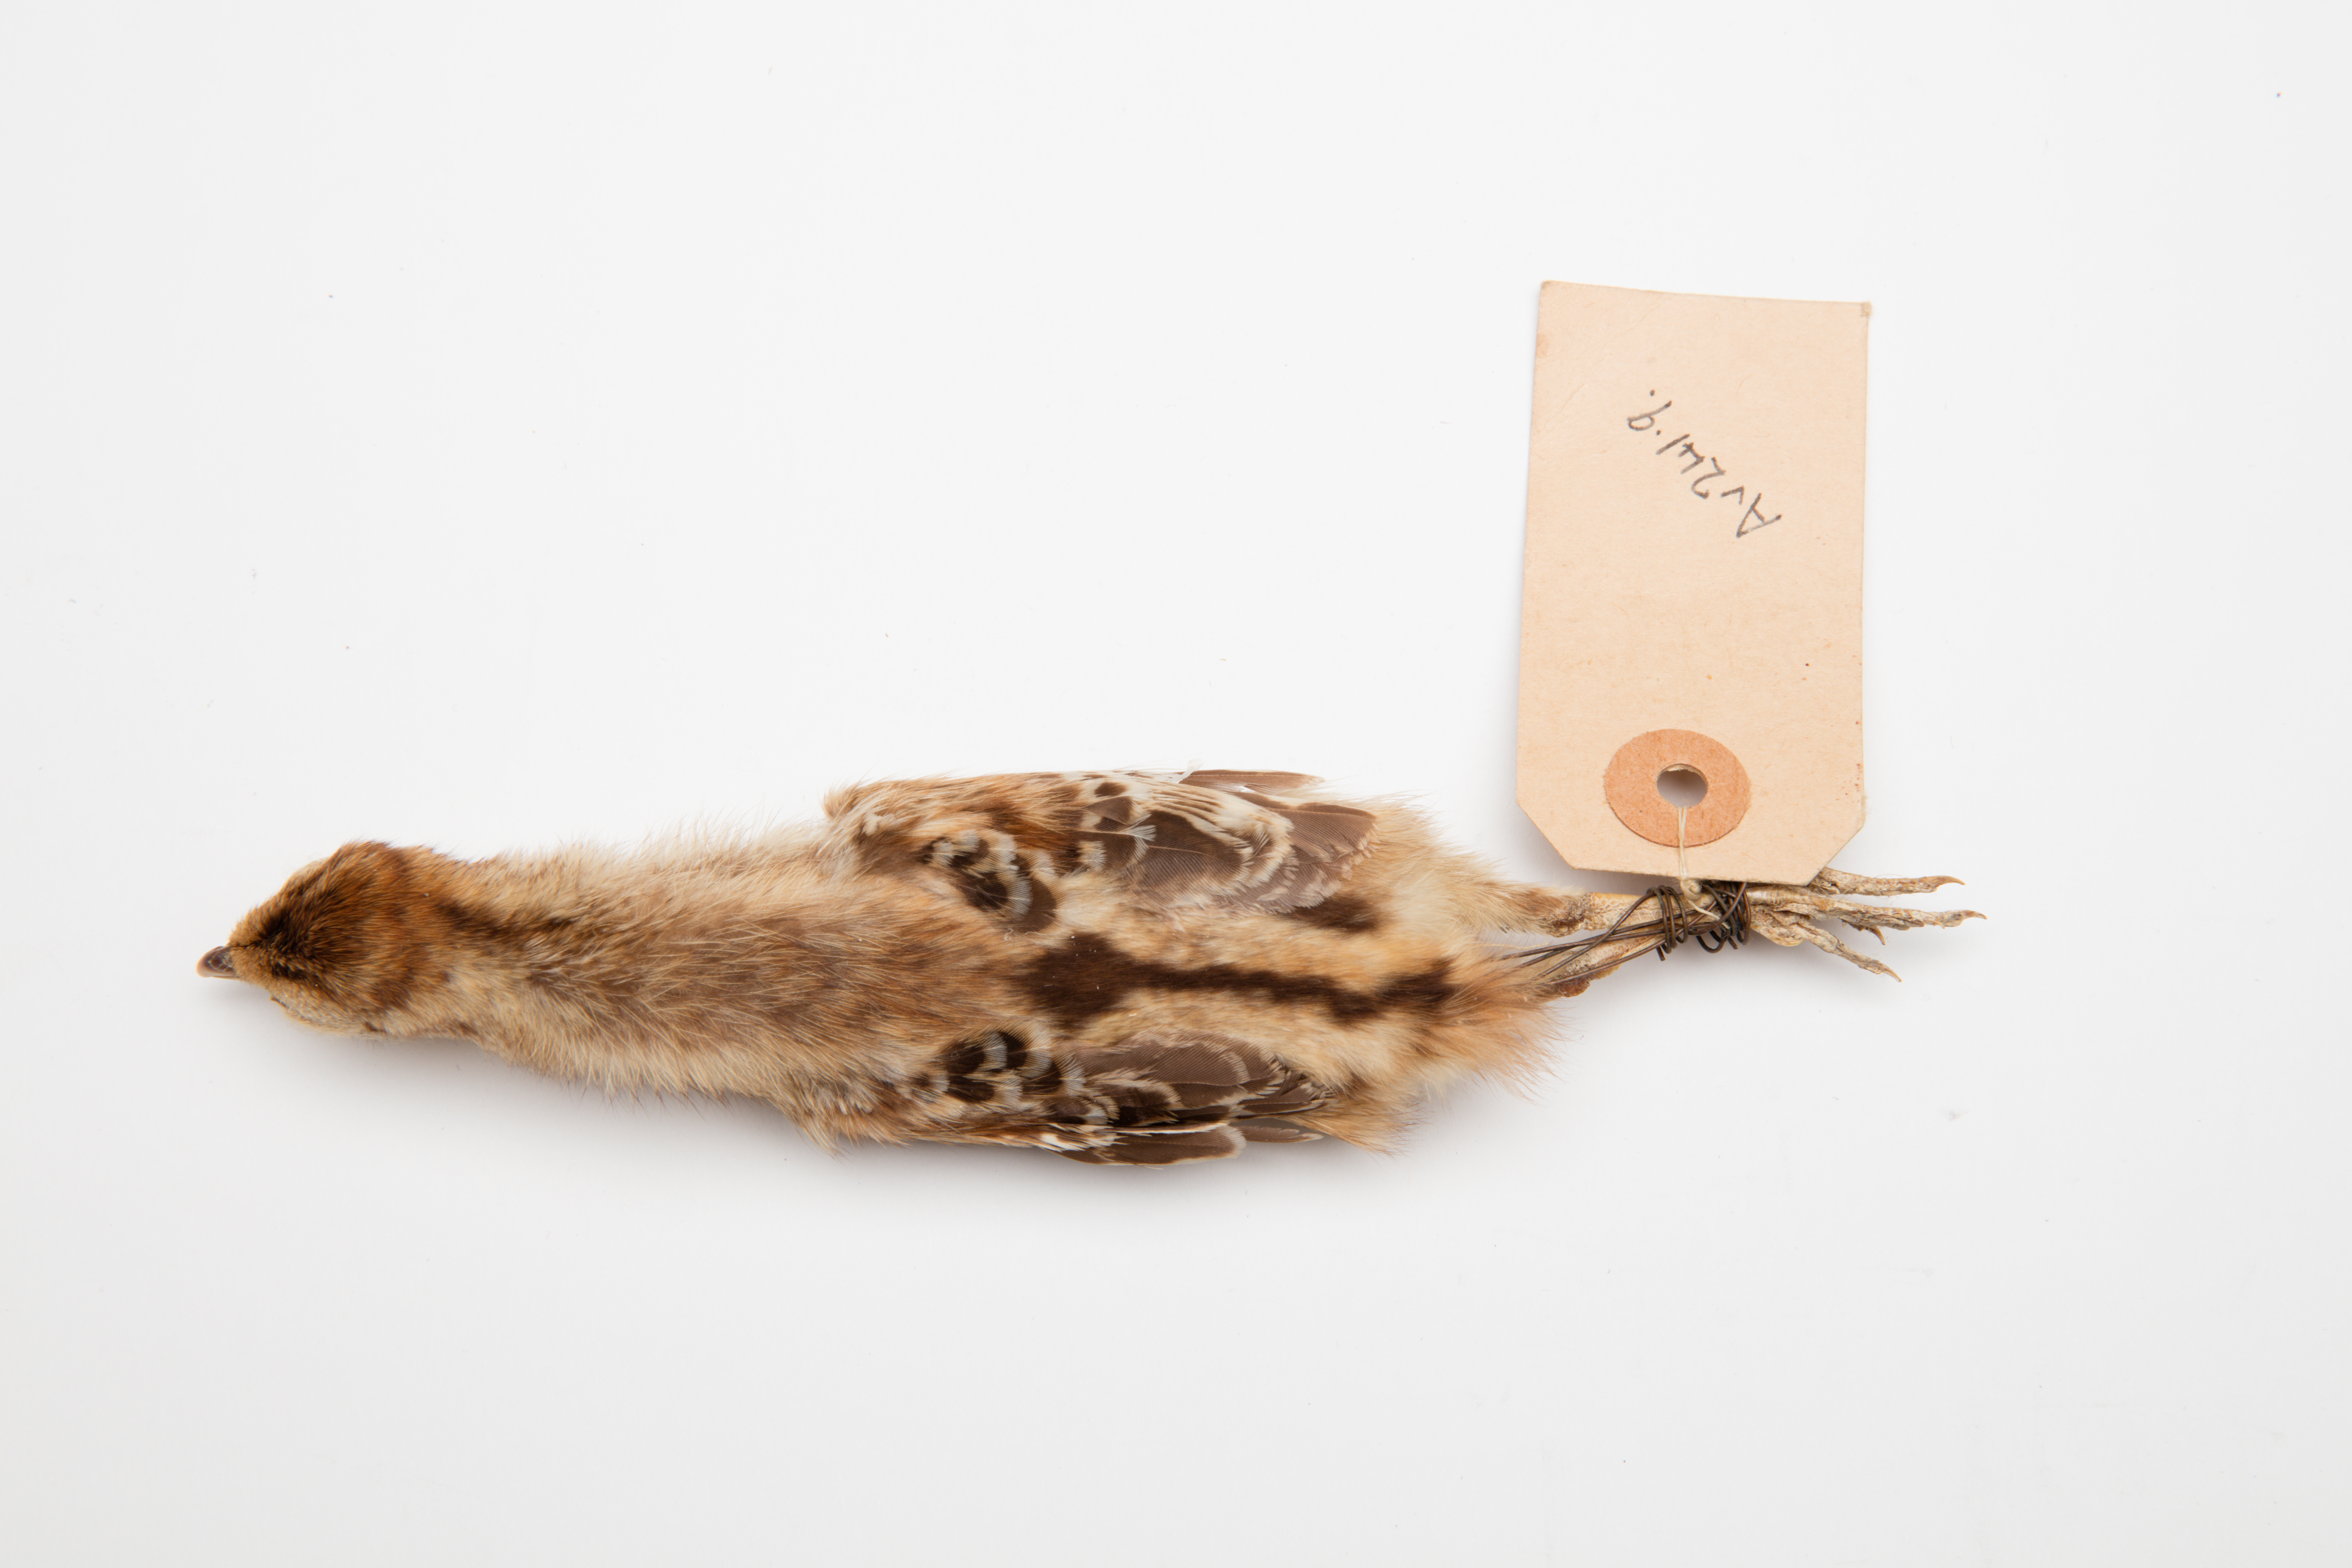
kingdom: Animalia
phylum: Chordata
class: Aves
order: Galliformes
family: Phasianidae
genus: Phasianus
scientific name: Phasianus colchicus
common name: Common pheasant
